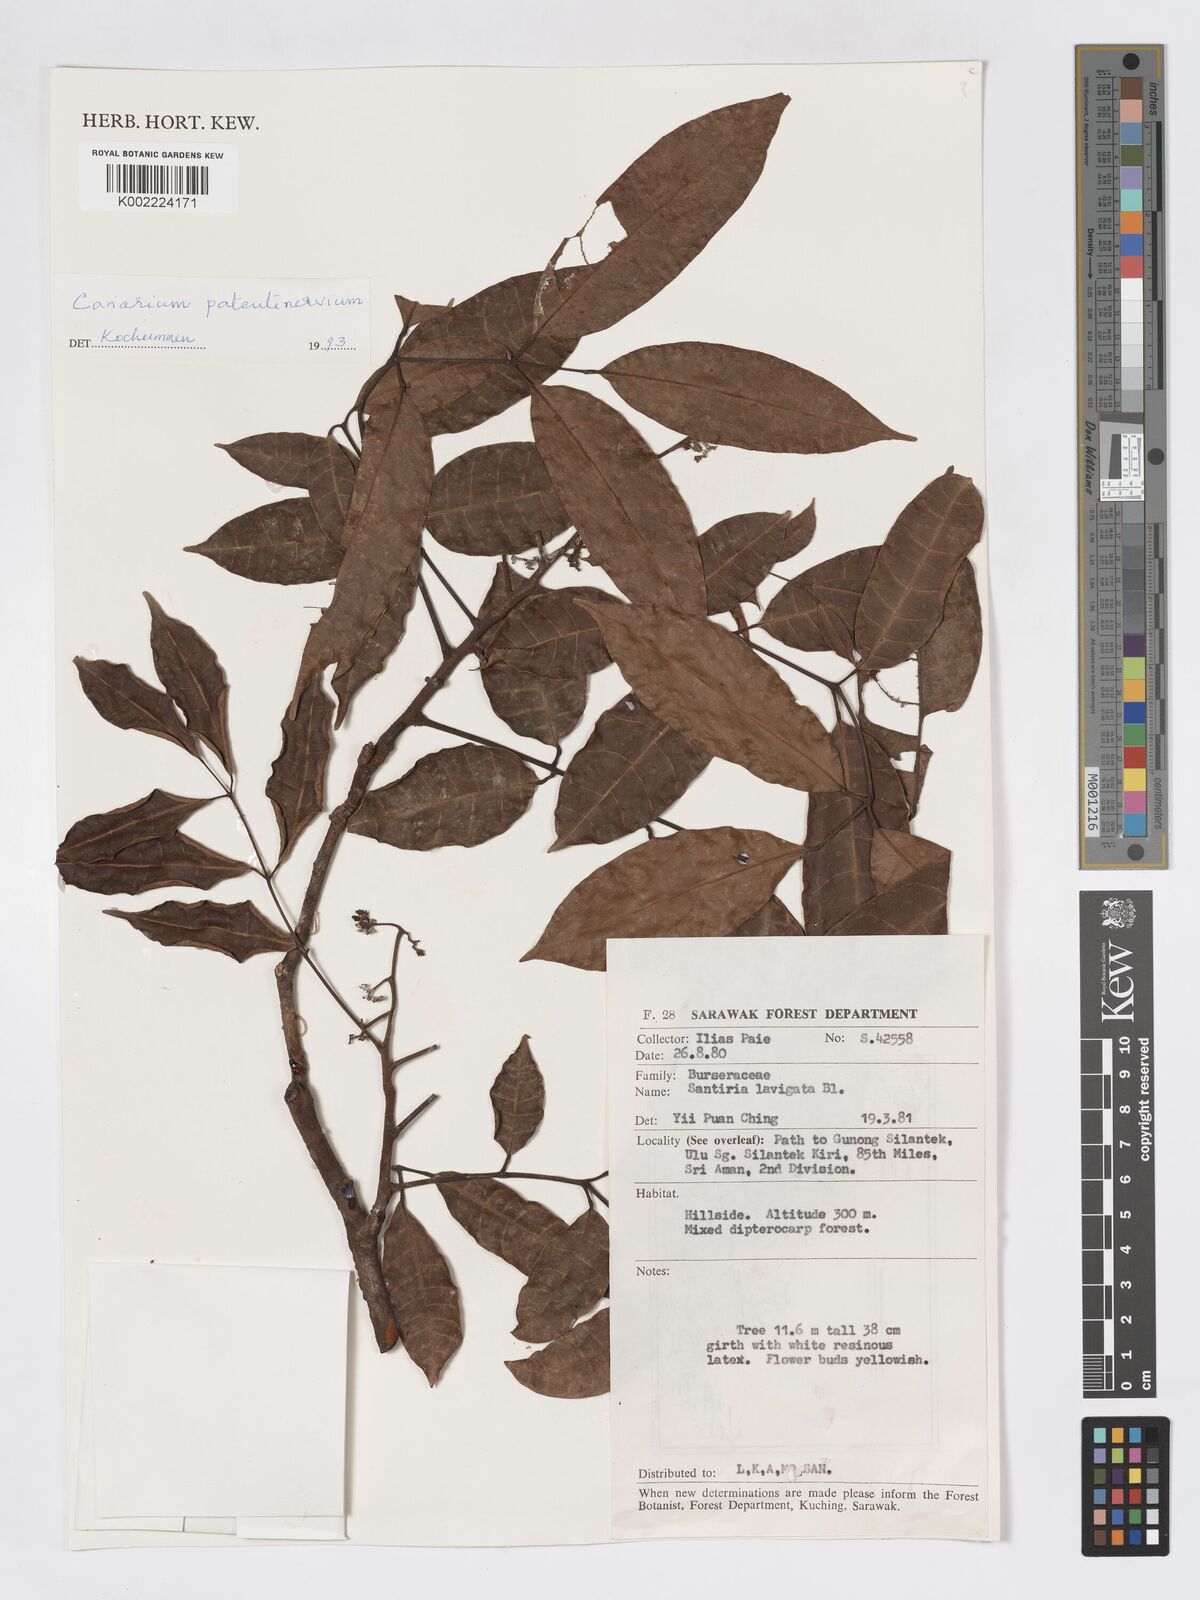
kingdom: Plantae
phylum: Tracheophyta
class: Magnoliopsida
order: Sapindales
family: Burseraceae
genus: Canarium
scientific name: Canarium patentinervium
